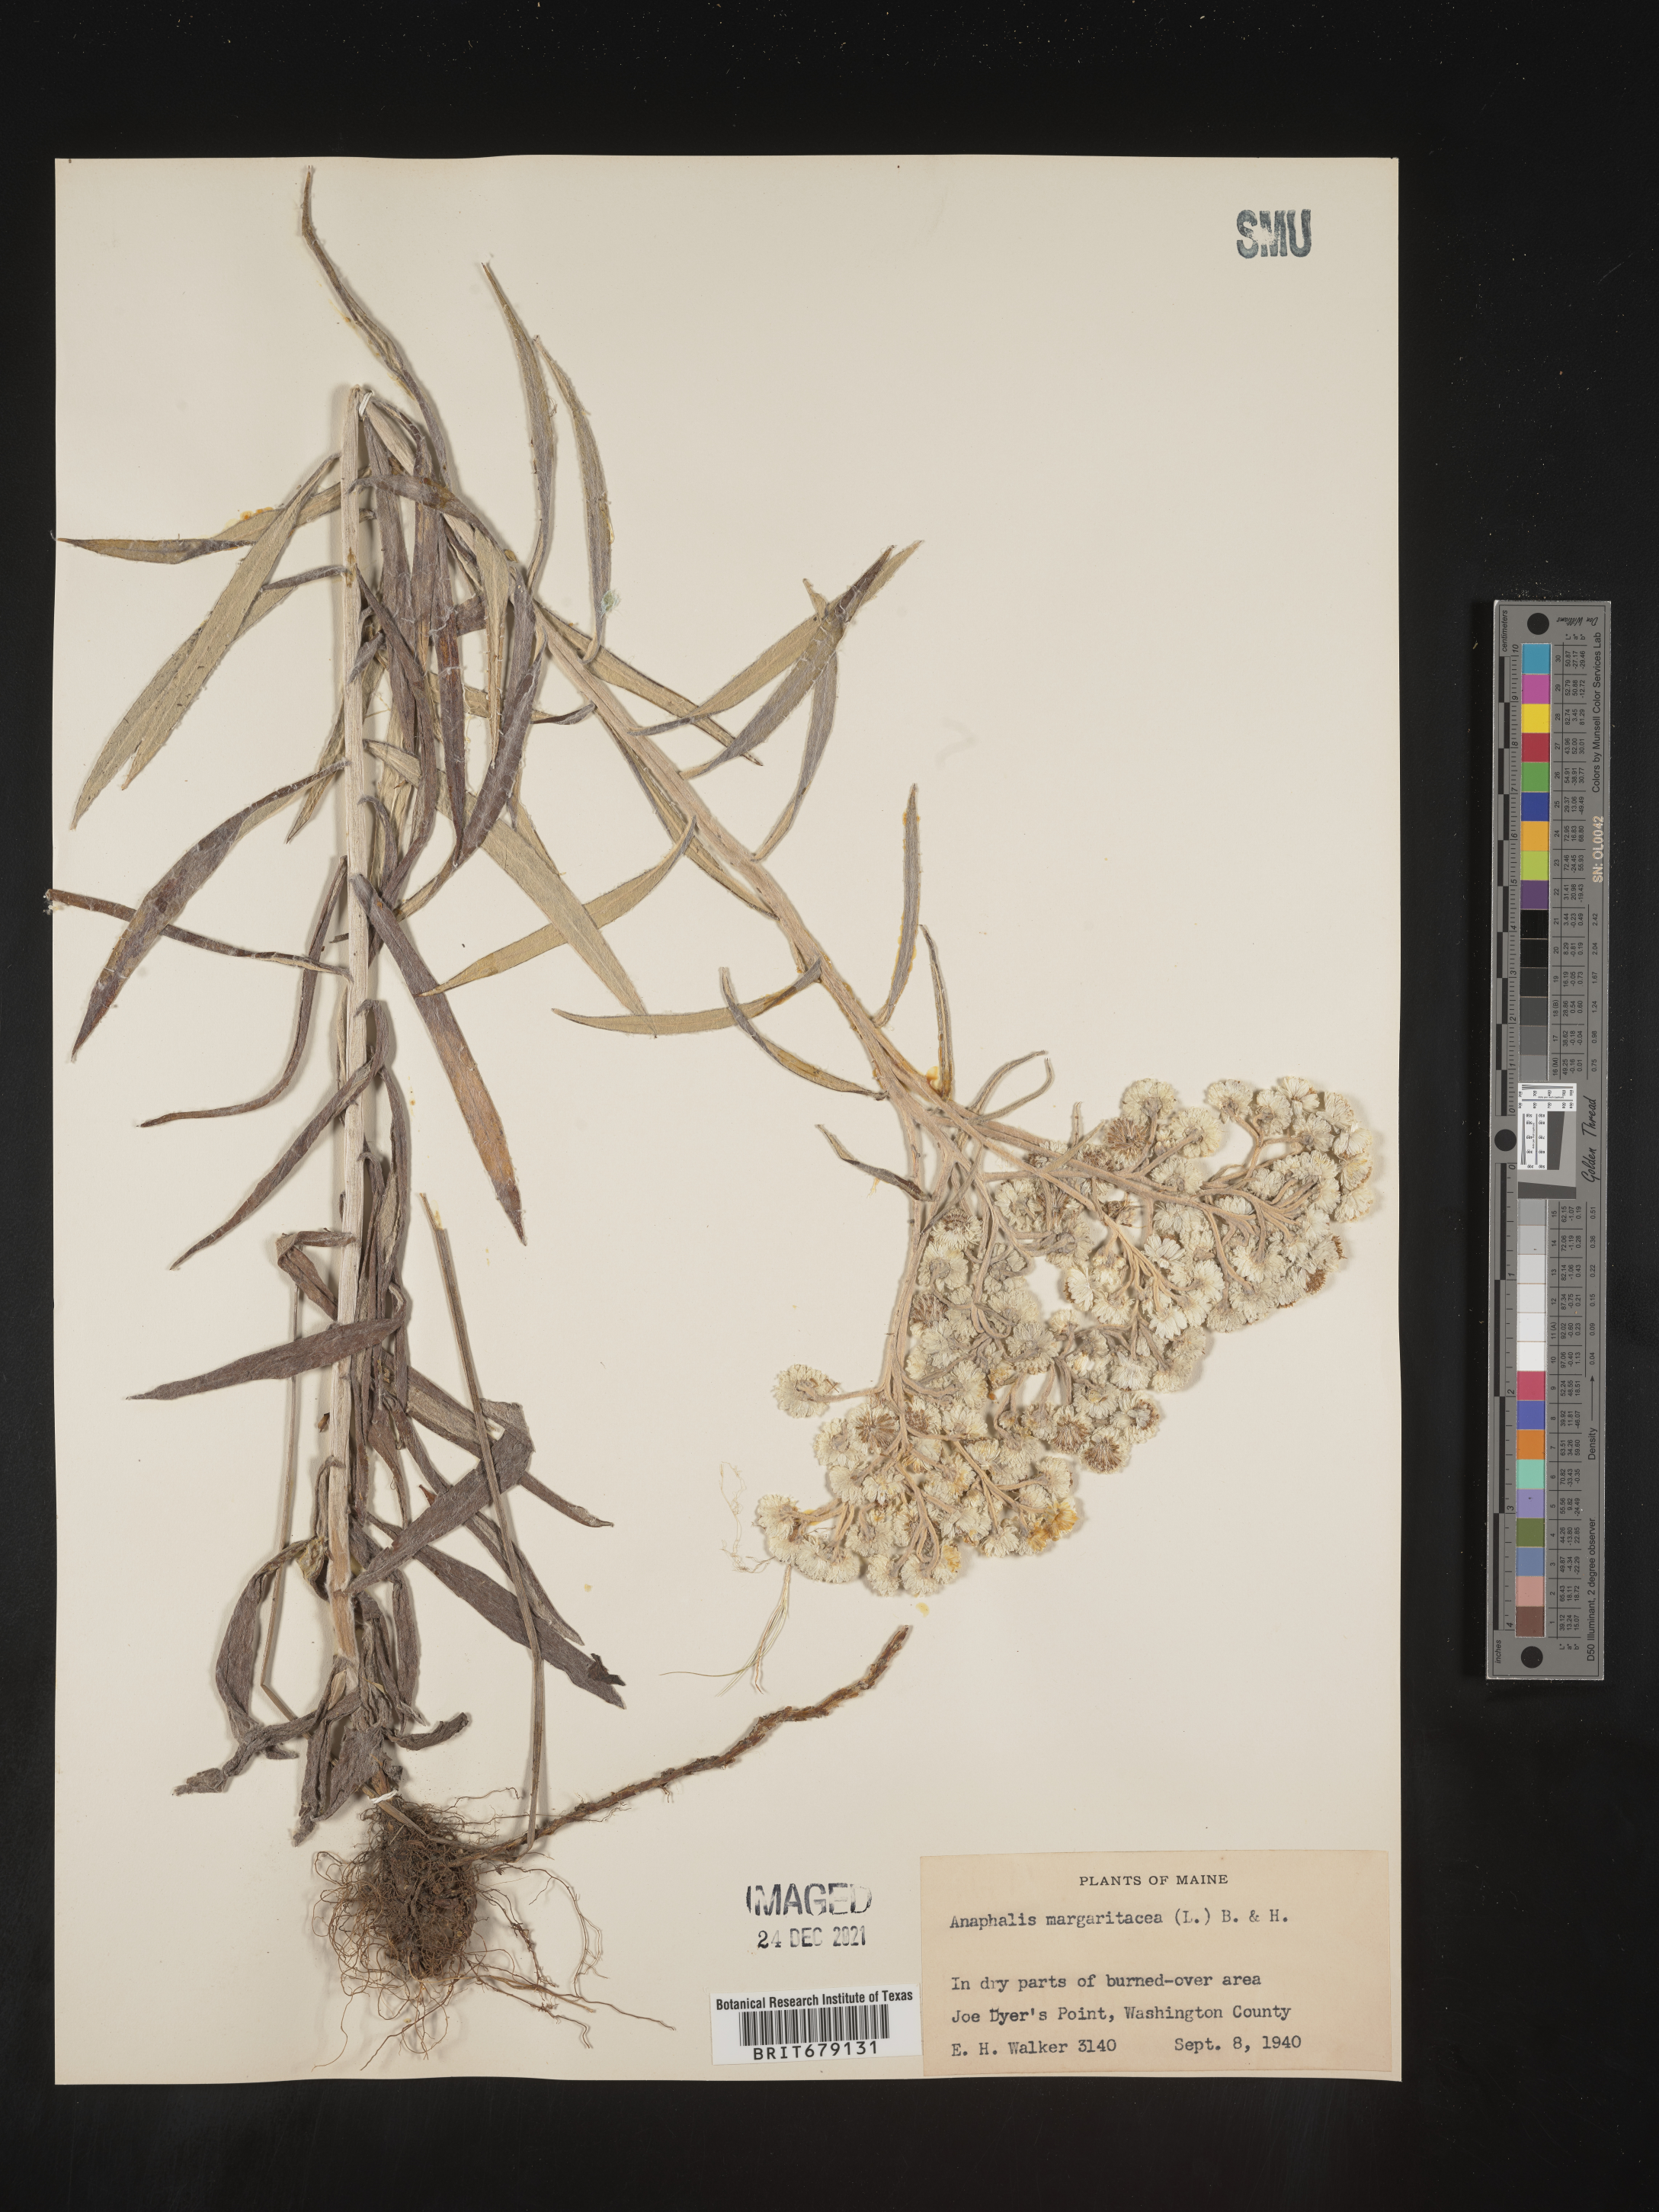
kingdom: Plantae
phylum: Tracheophyta
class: Magnoliopsida
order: Asterales
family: Asteraceae
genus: Anaphalis
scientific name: Anaphalis margaritacea
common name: Pearly everlasting
